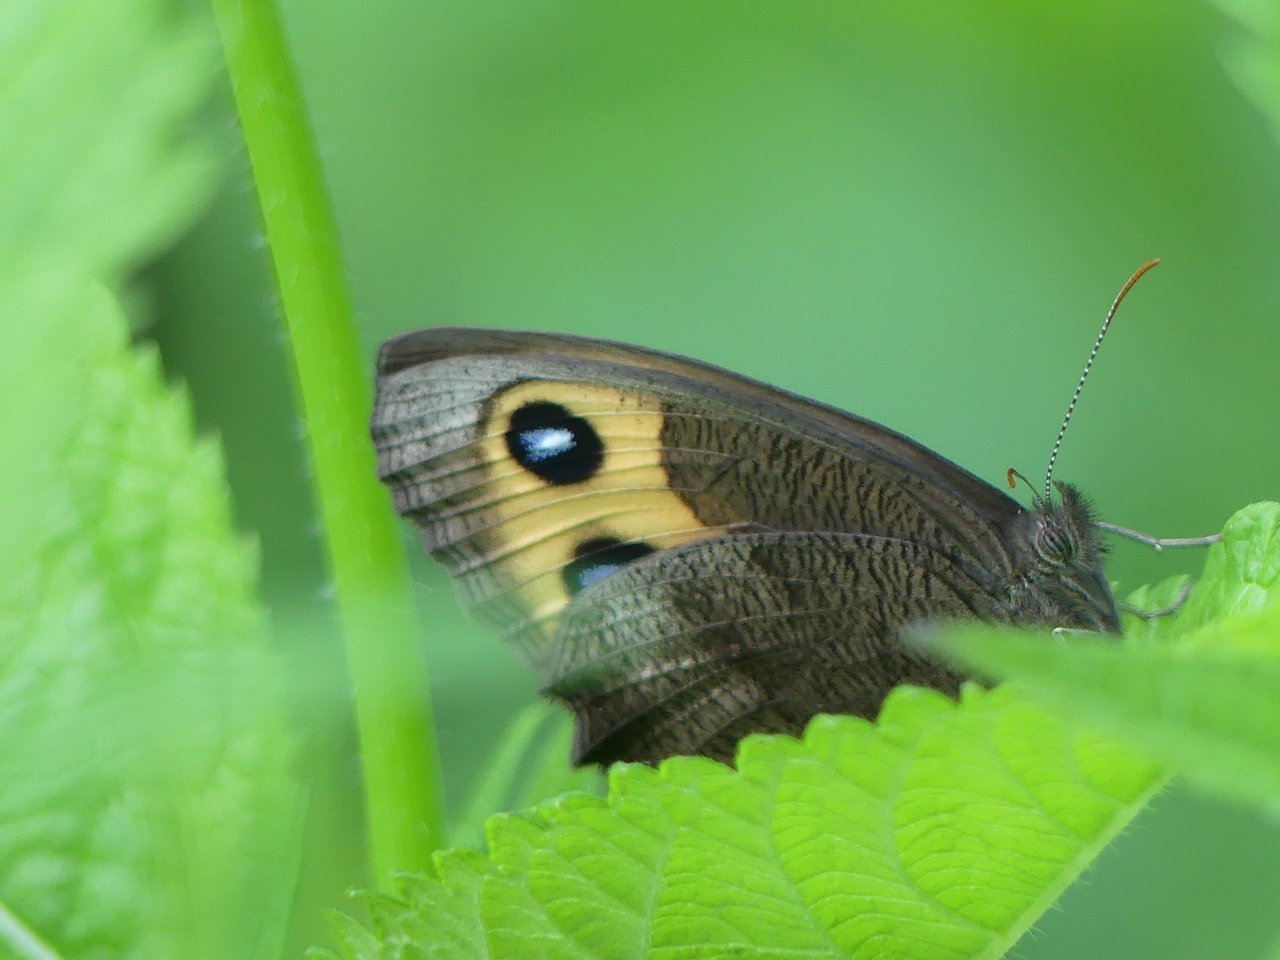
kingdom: Animalia
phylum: Arthropoda
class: Insecta
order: Lepidoptera
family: Nymphalidae
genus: Cercyonis
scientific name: Cercyonis pegala
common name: Common Wood-Nymph
